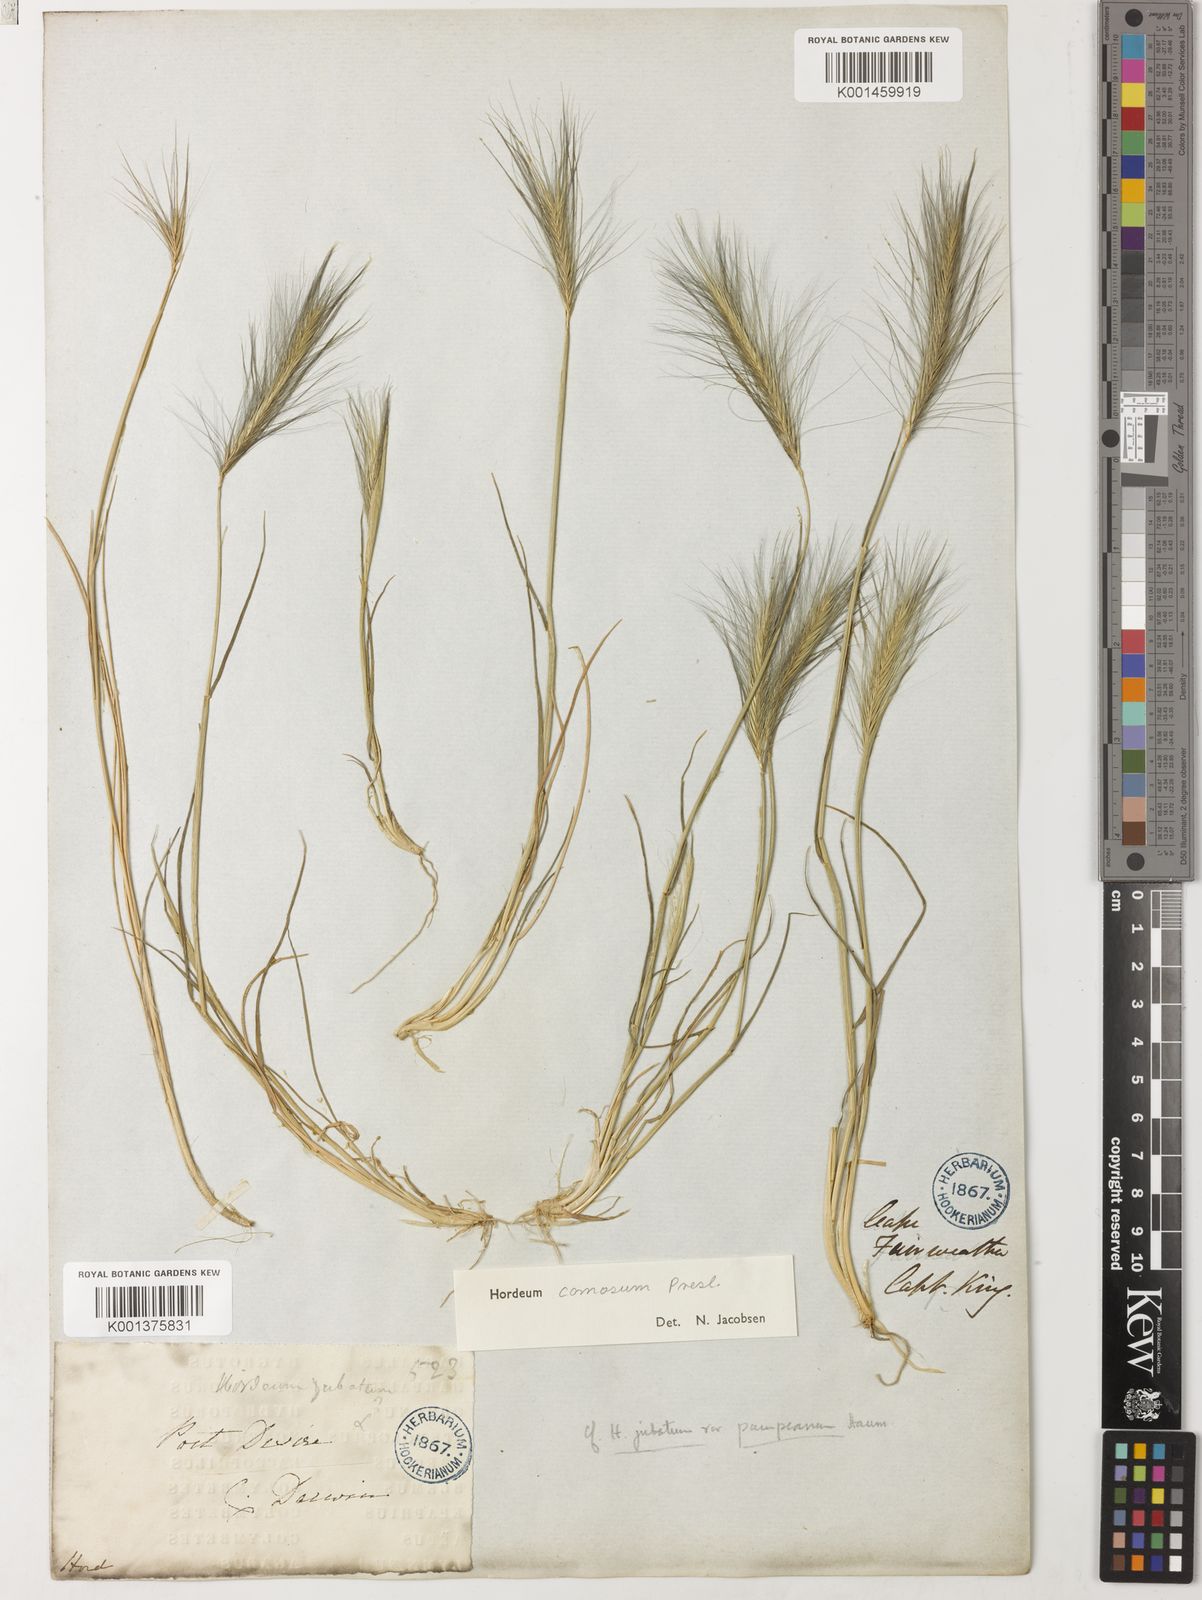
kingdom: Plantae
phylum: Tracheophyta
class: Liliopsida
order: Poales
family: Poaceae
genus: Hordeum
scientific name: Hordeum comosum
